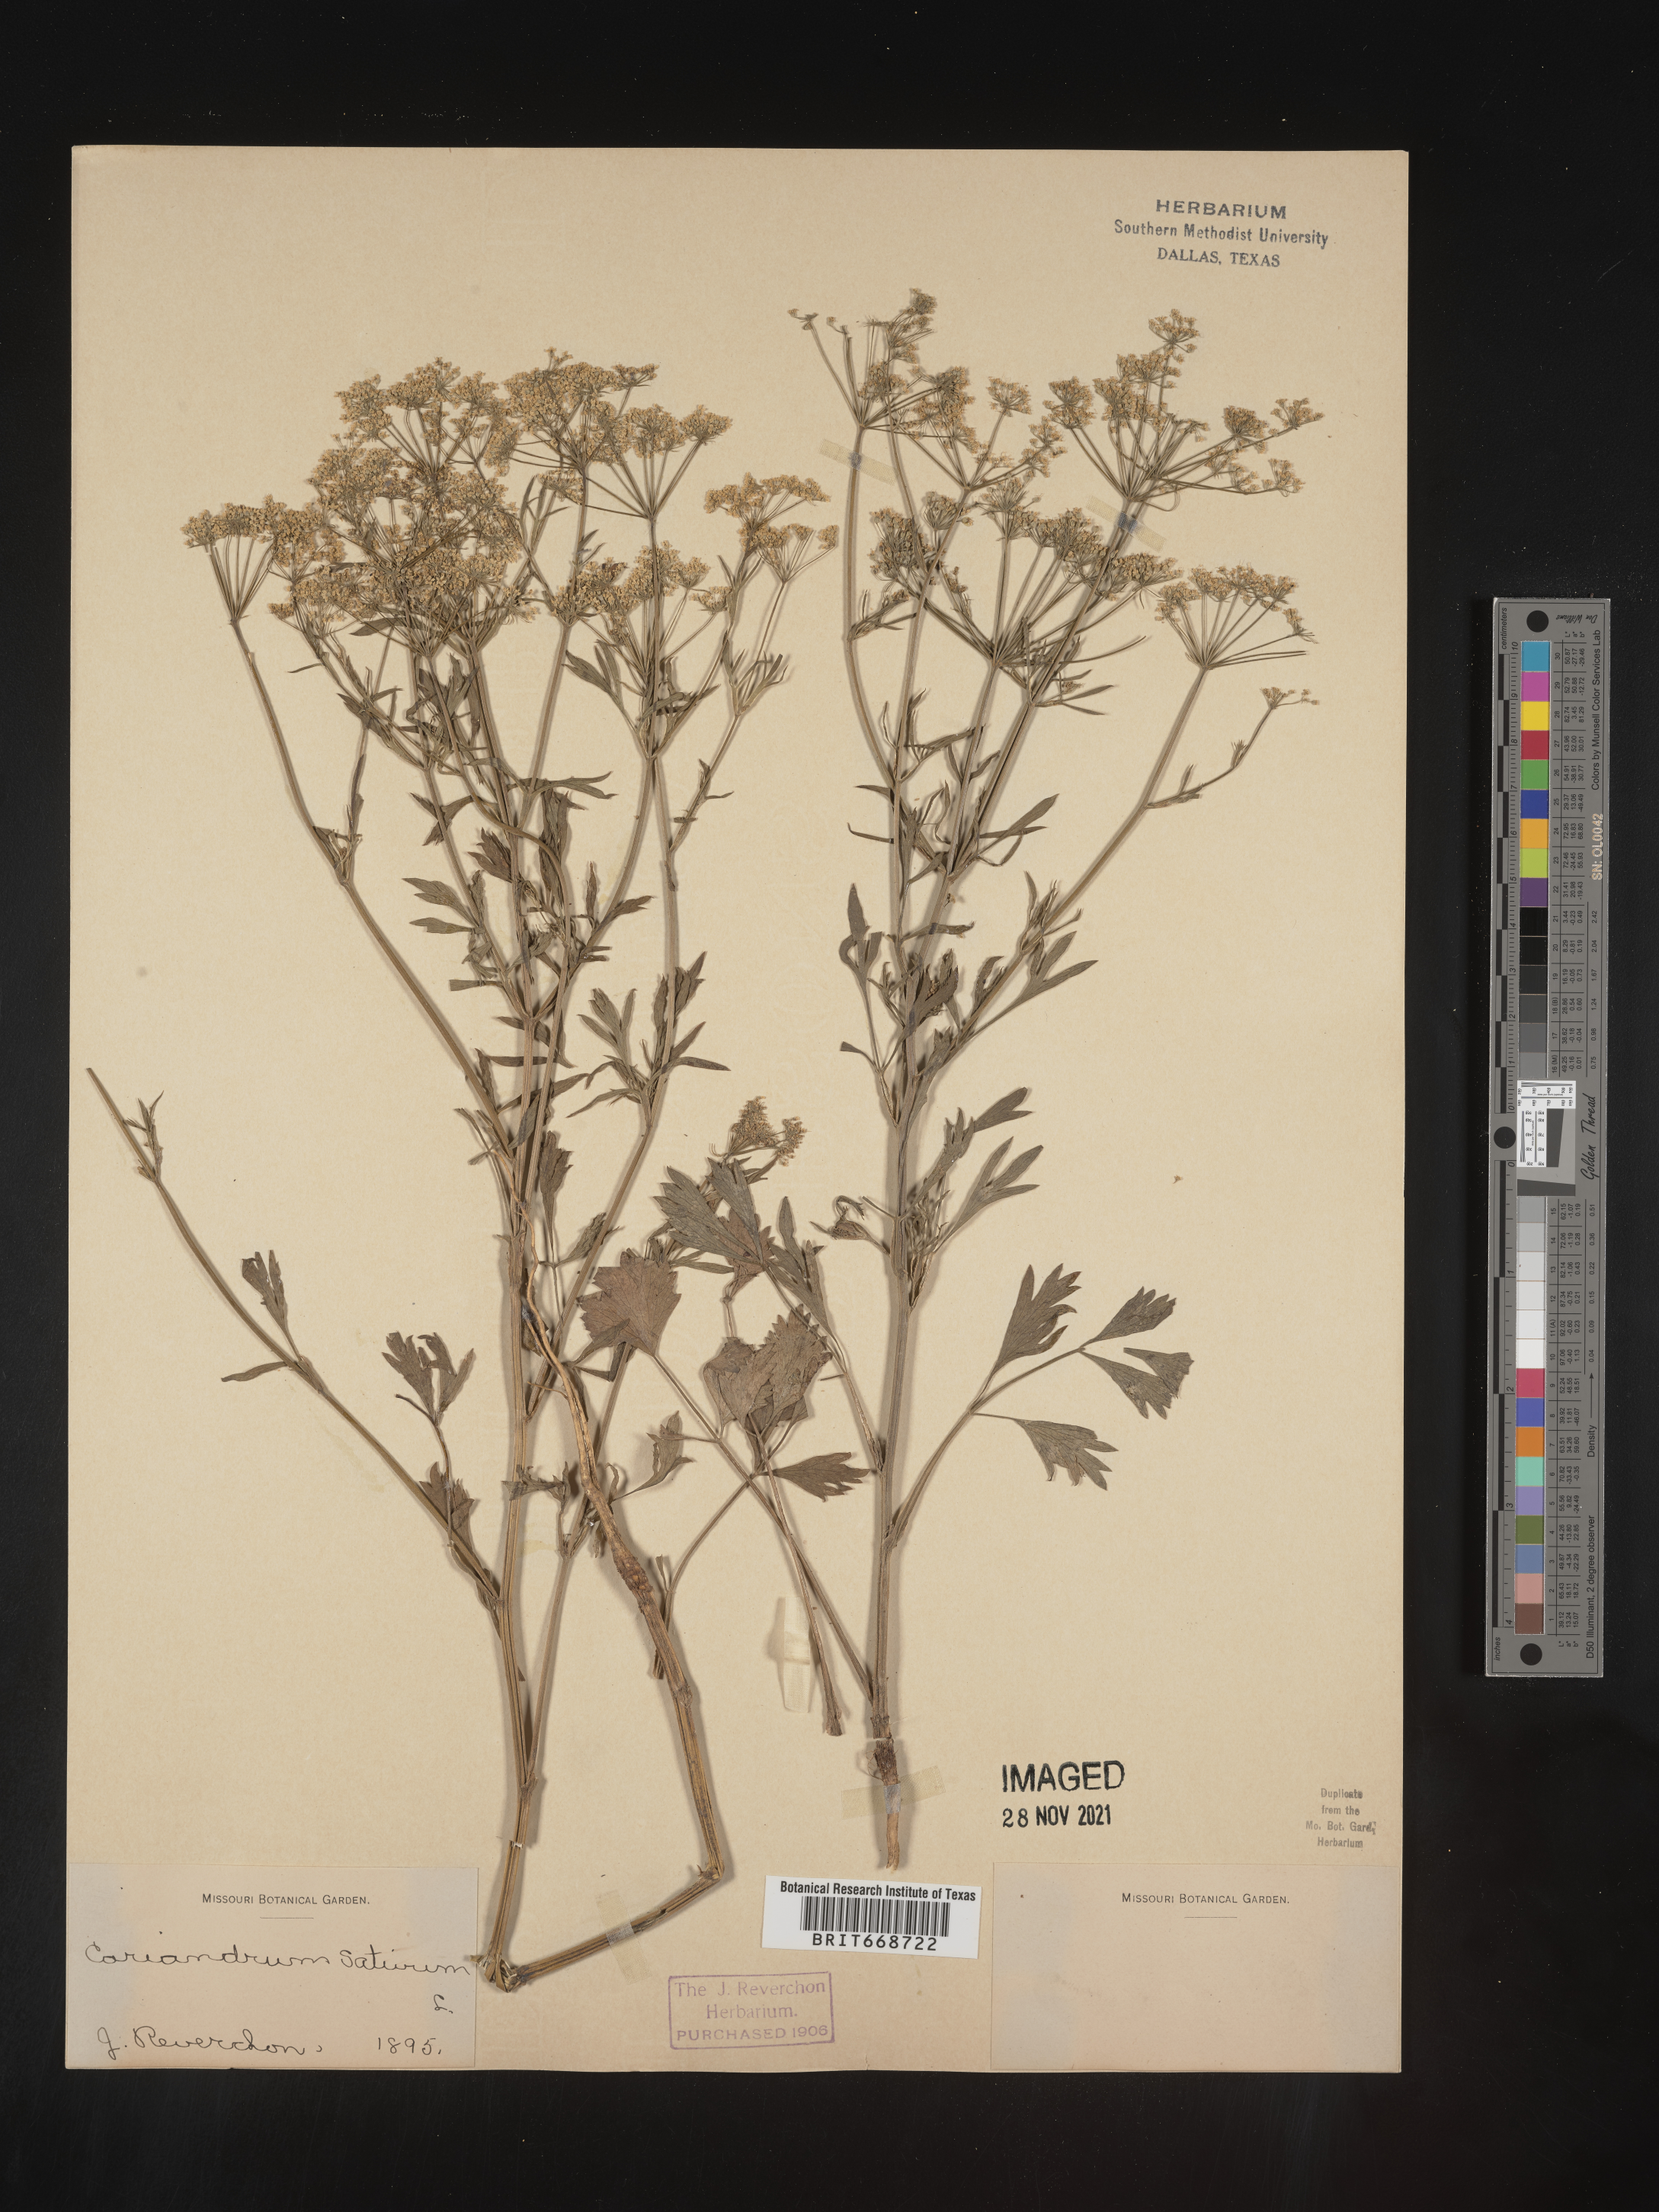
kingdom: Plantae
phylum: Tracheophyta
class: Magnoliopsida
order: Apiales
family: Apiaceae
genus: Coriandrum
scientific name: Coriandrum
